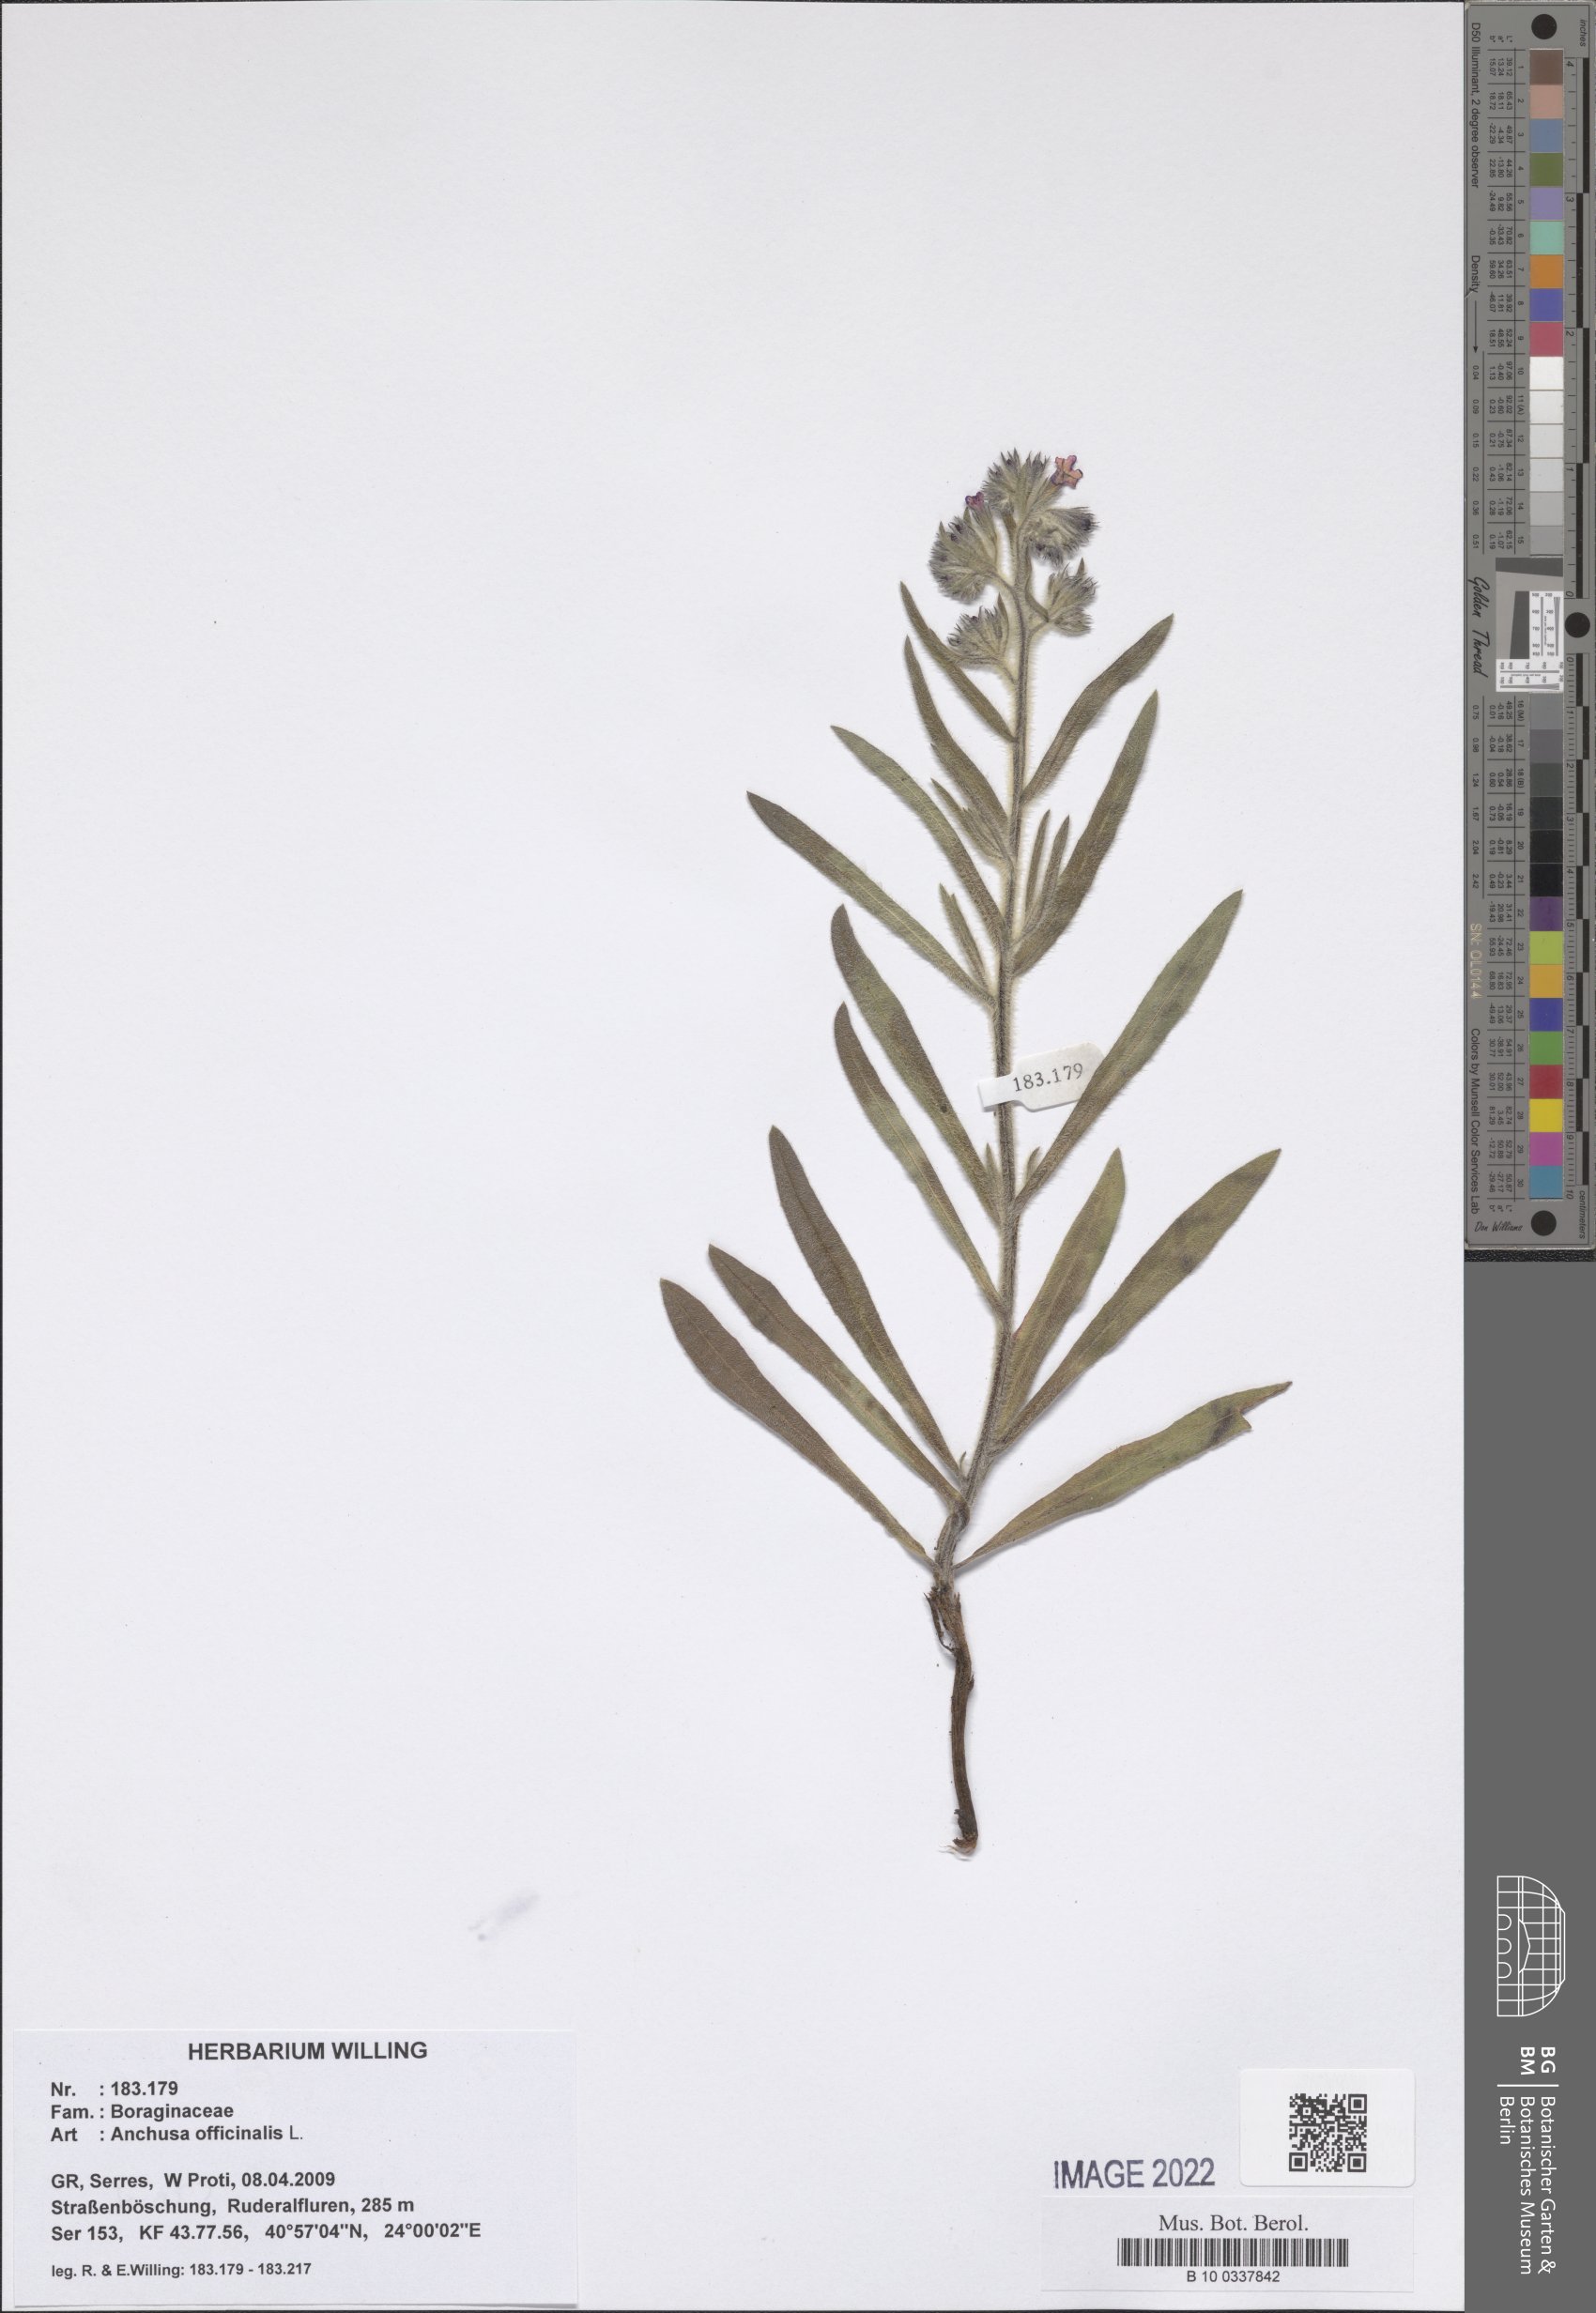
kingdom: Plantae
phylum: Tracheophyta
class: Magnoliopsida
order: Boraginales
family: Boraginaceae
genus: Anchusa
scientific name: Anchusa officinalis
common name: Alkanet
